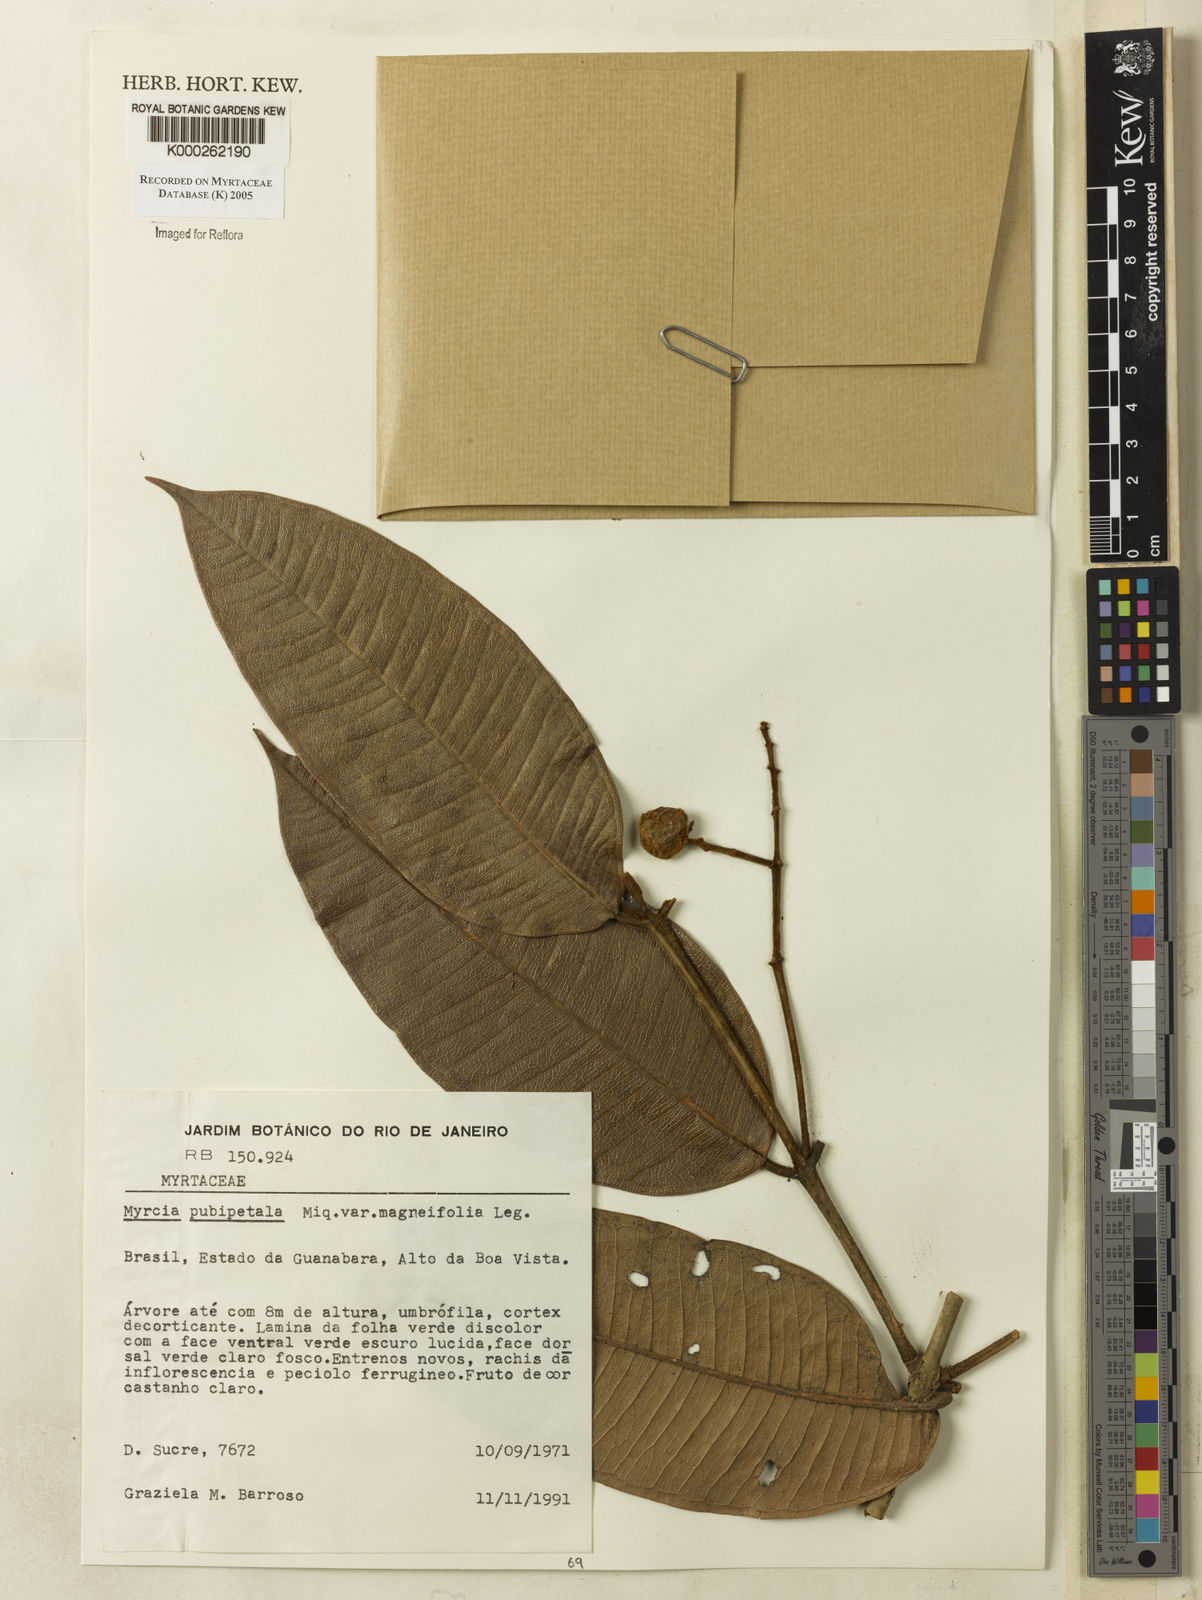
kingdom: Plantae
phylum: Tracheophyta
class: Magnoliopsida
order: Myrtales
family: Myrtaceae
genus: Myrcia
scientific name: Myrcia pubipetala
